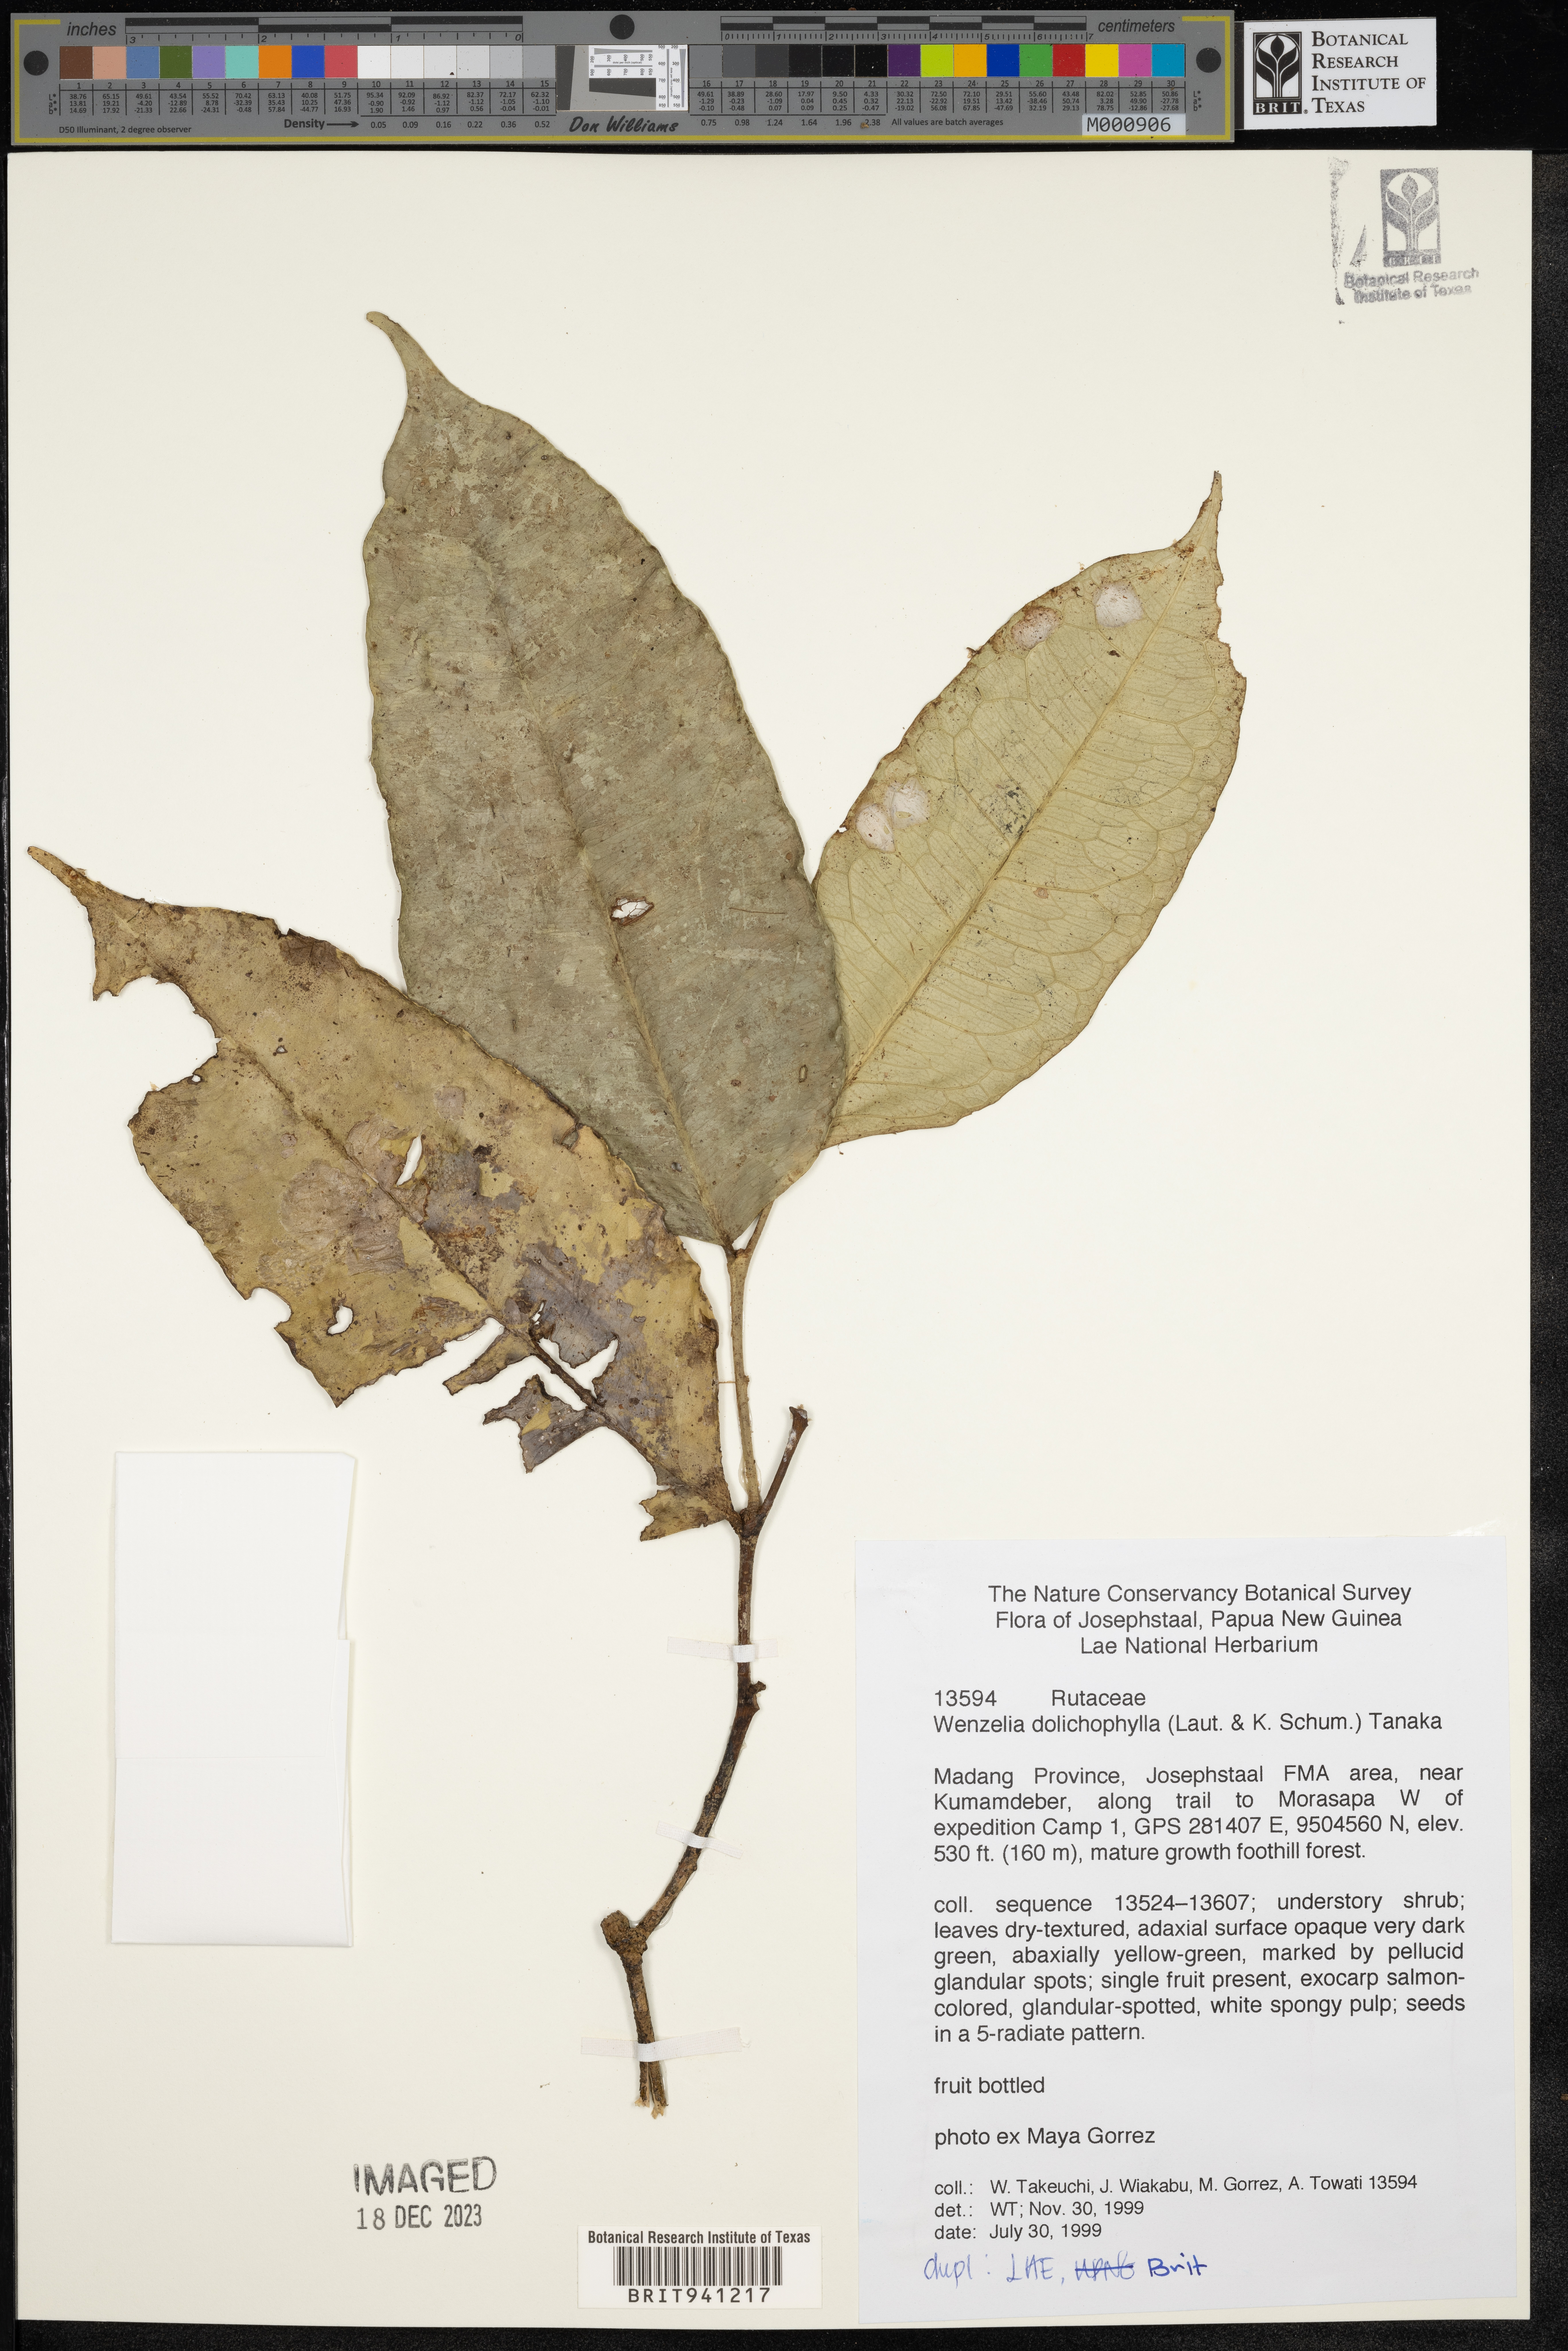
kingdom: Plantae
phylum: Tracheophyta
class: Magnoliopsida
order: Sapindales
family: Rutaceae
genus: Wenzelia
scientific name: Wenzelia
